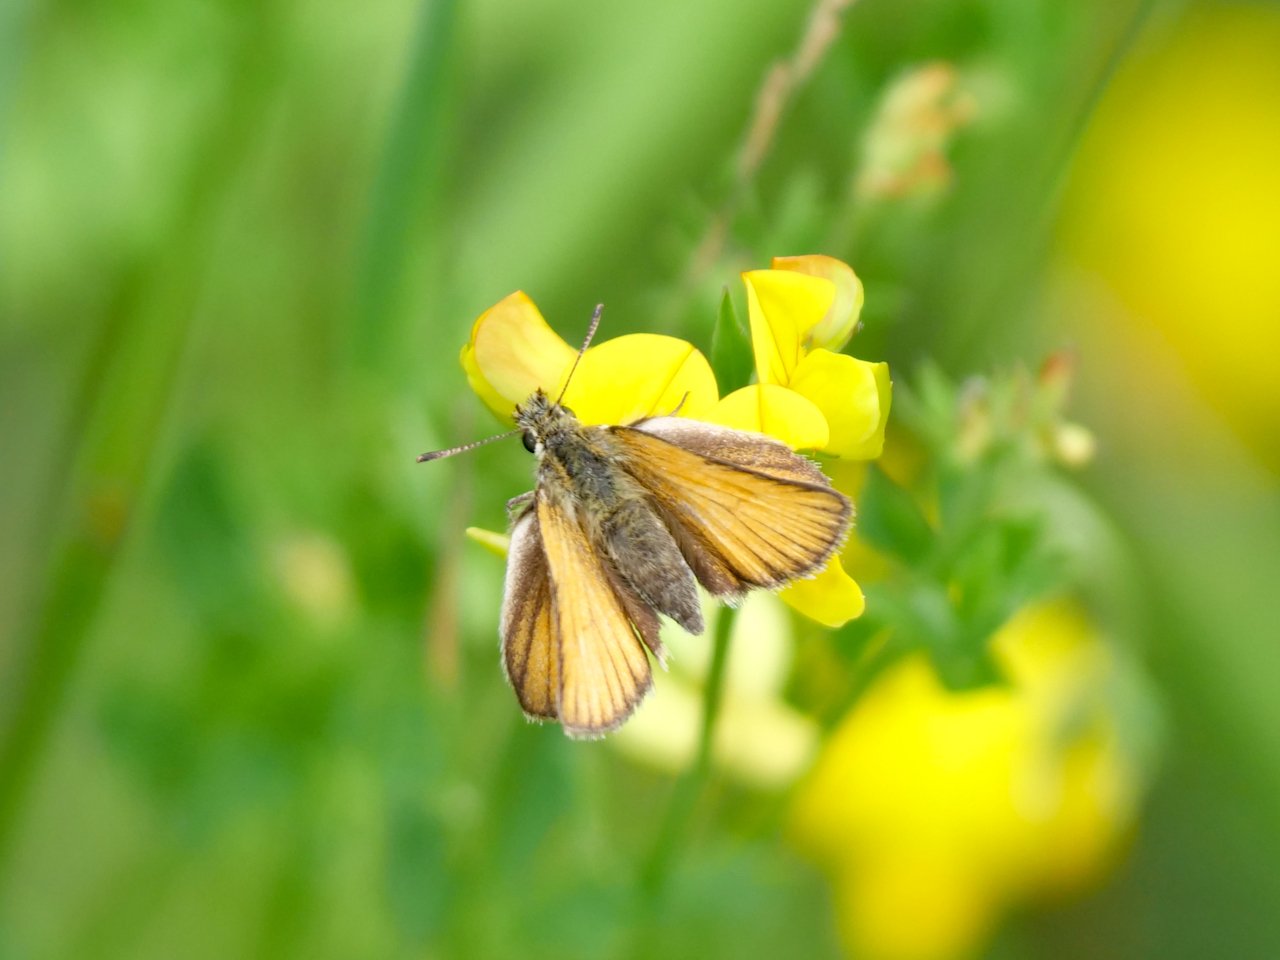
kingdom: Animalia
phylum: Arthropoda
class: Insecta
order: Lepidoptera
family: Hesperiidae
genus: Thymelicus
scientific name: Thymelicus lineola
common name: European Skipper
